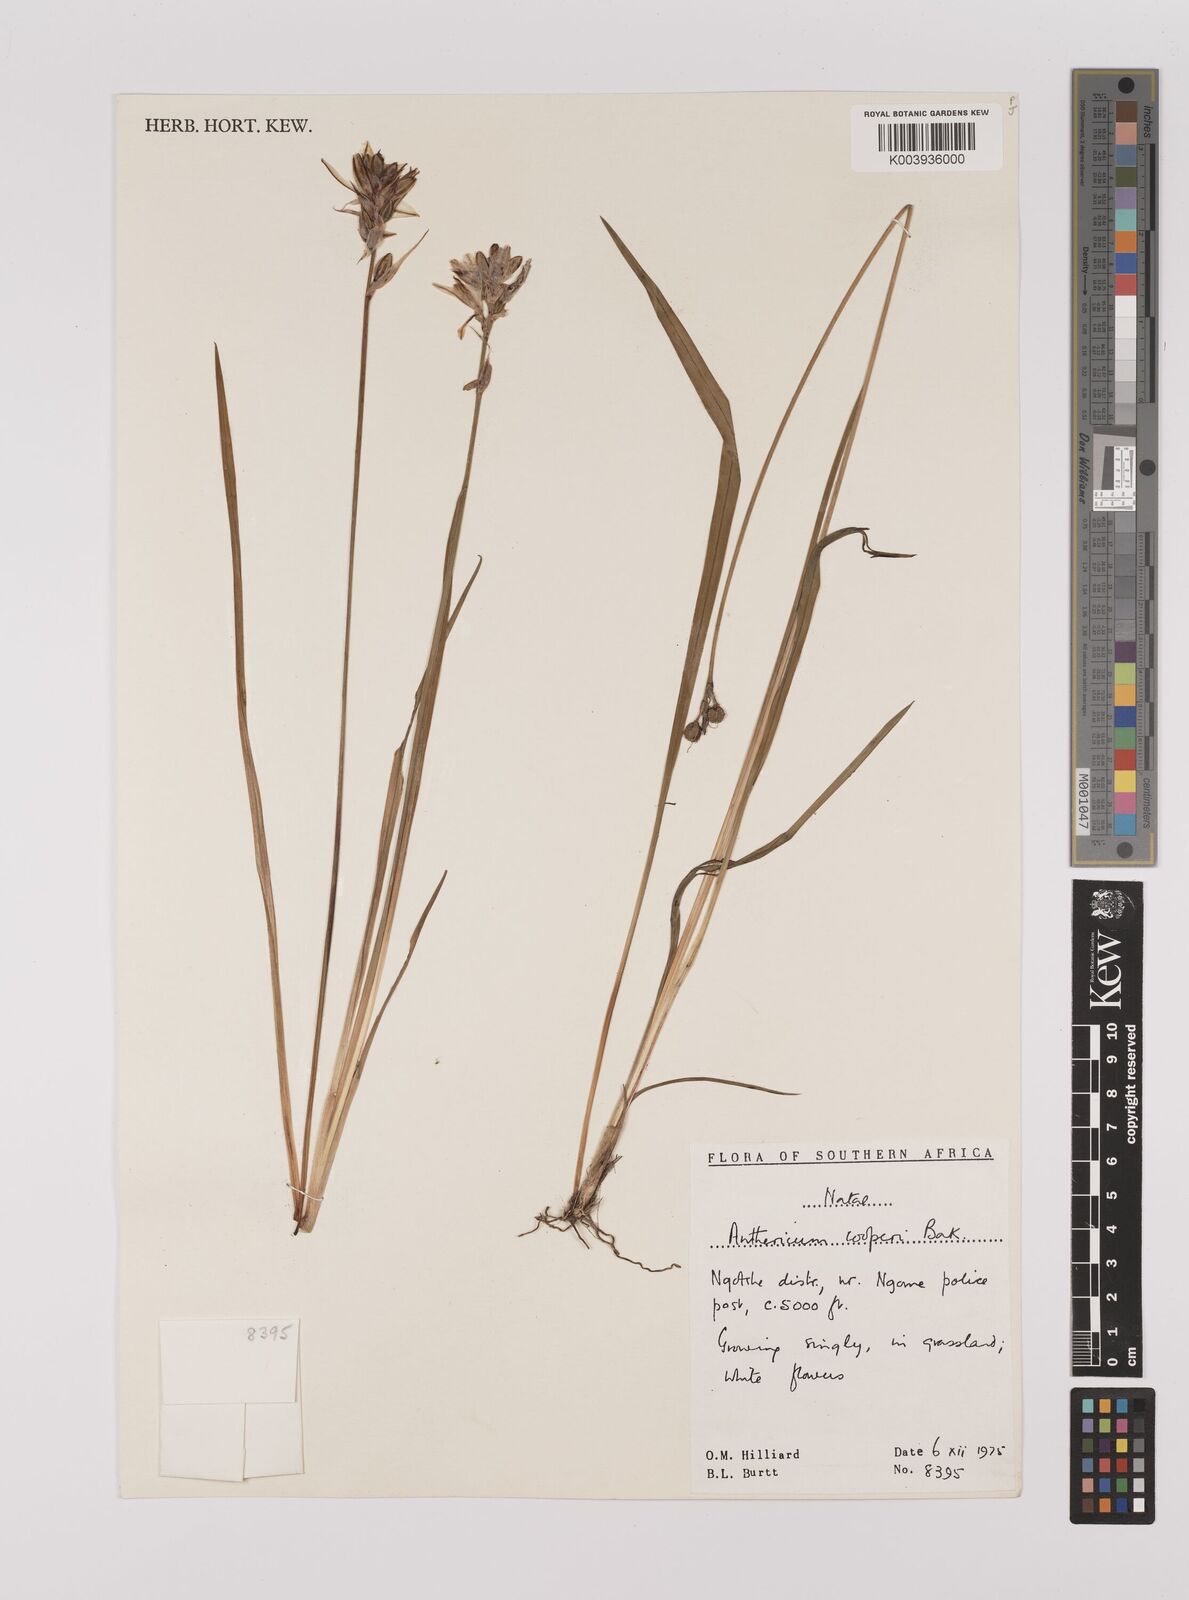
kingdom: Plantae
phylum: Tracheophyta
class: Liliopsida
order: Asparagales
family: Asparagaceae
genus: Chlorophytum
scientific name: Chlorophytum cooperi
